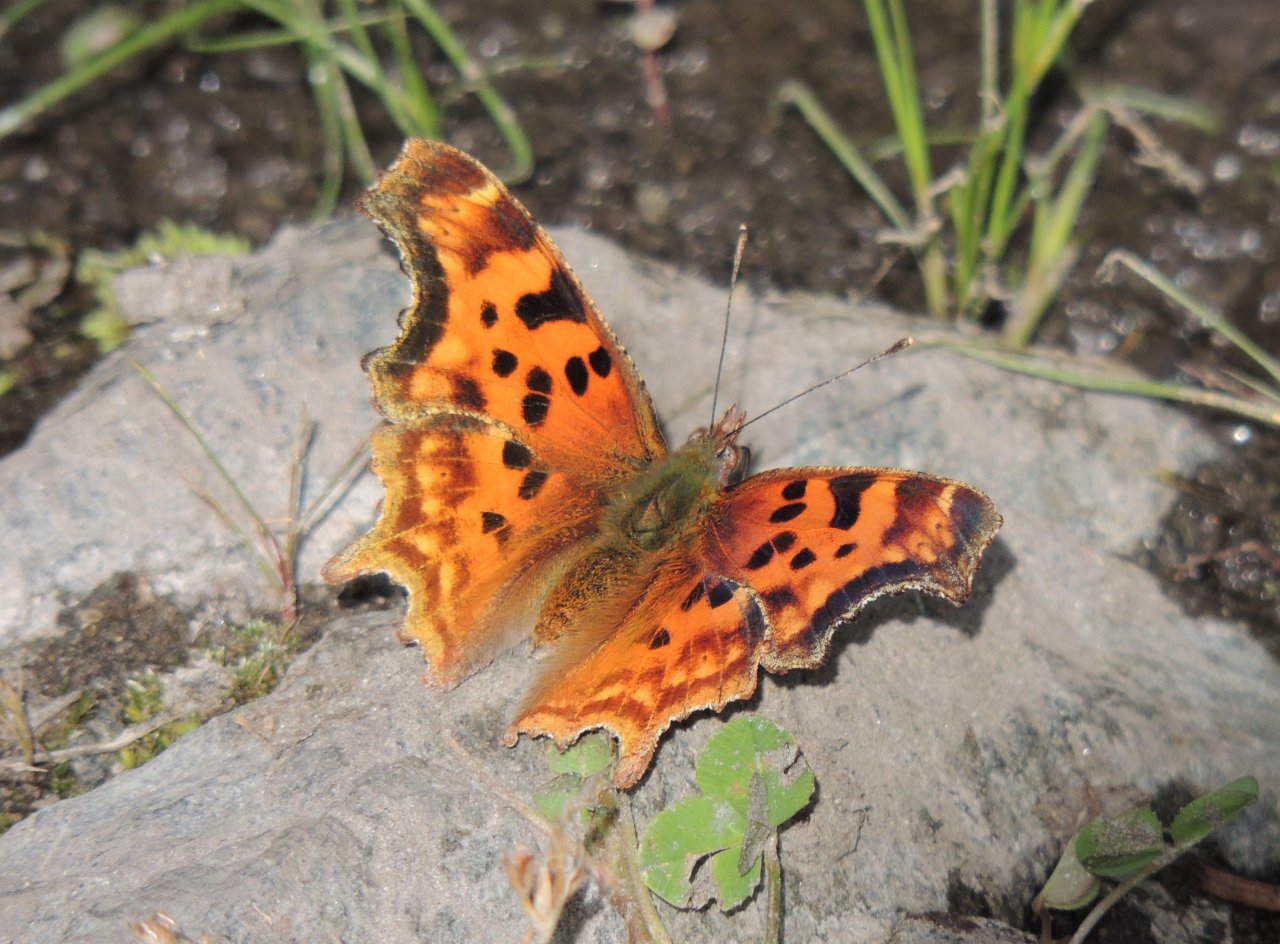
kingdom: Animalia
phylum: Arthropoda
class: Insecta
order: Lepidoptera
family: Nymphalidae
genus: Polygonia
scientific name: Polygonia satyrus
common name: Satyr Comma
